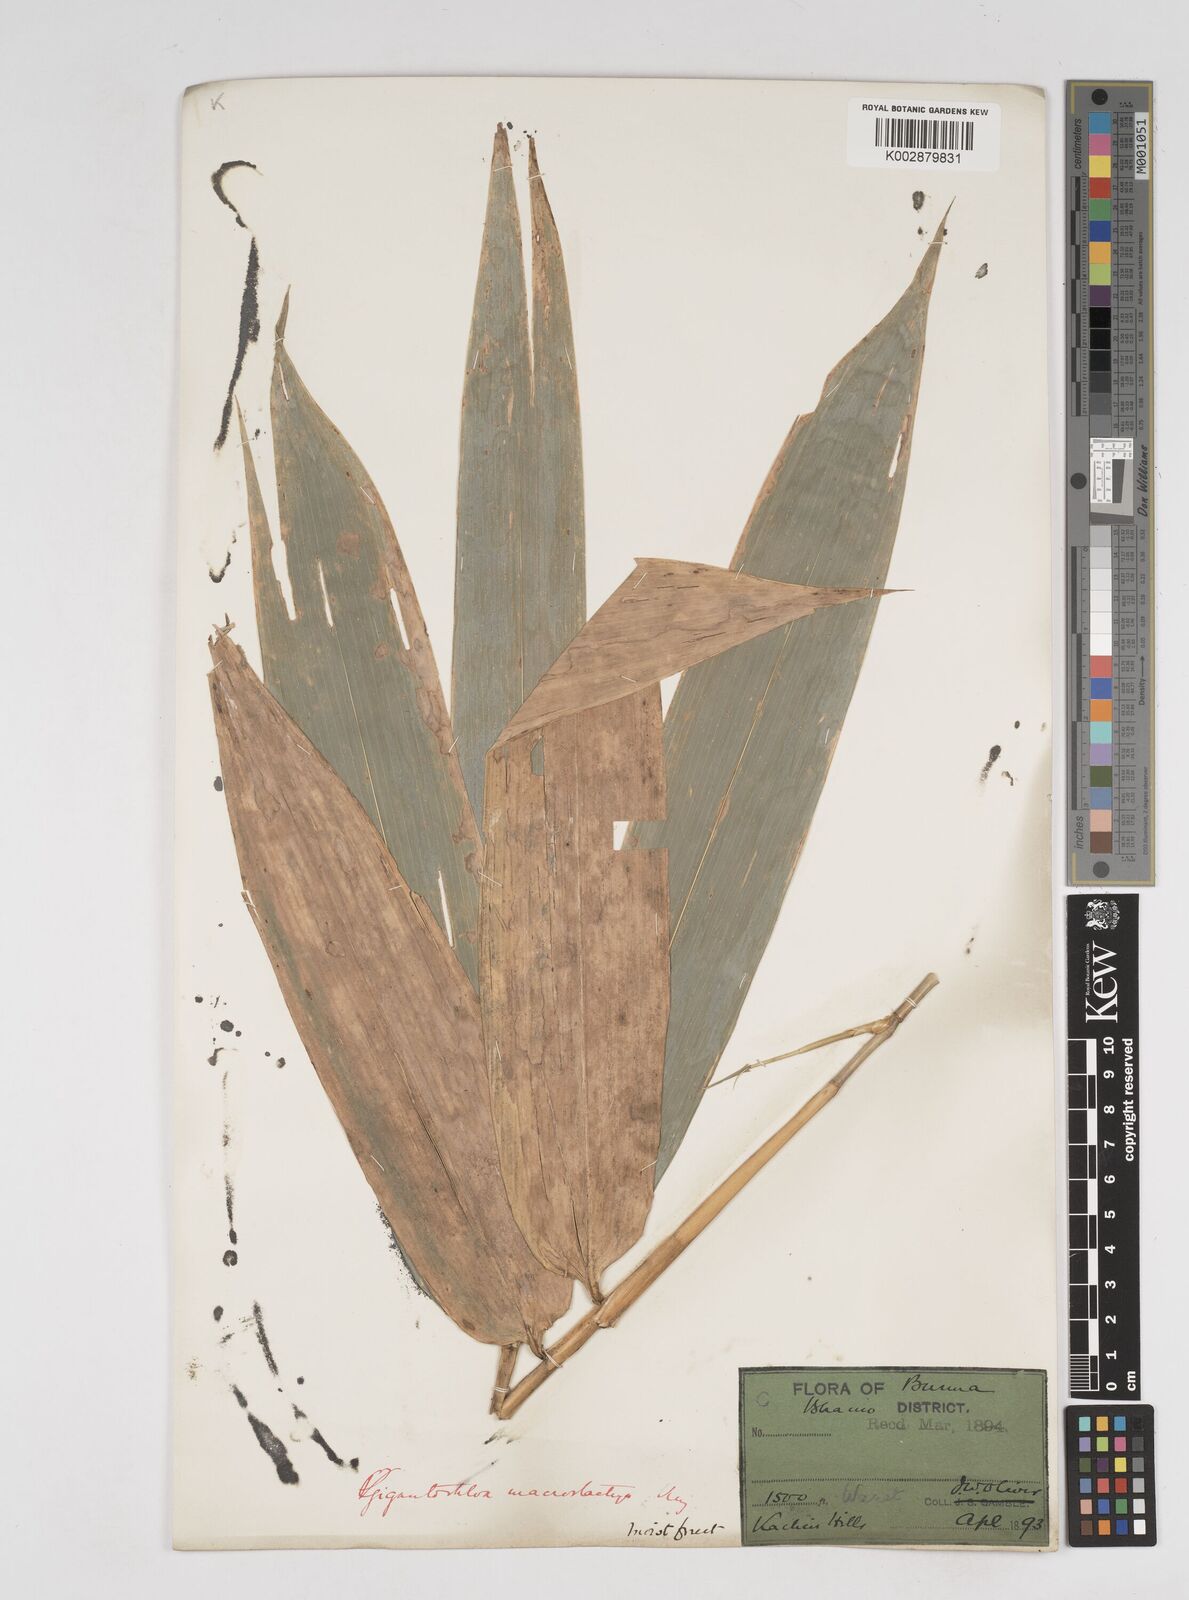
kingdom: Plantae
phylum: Tracheophyta
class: Liliopsida
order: Poales
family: Poaceae
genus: Gigantochloa
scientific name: Gigantochloa macrostachya
